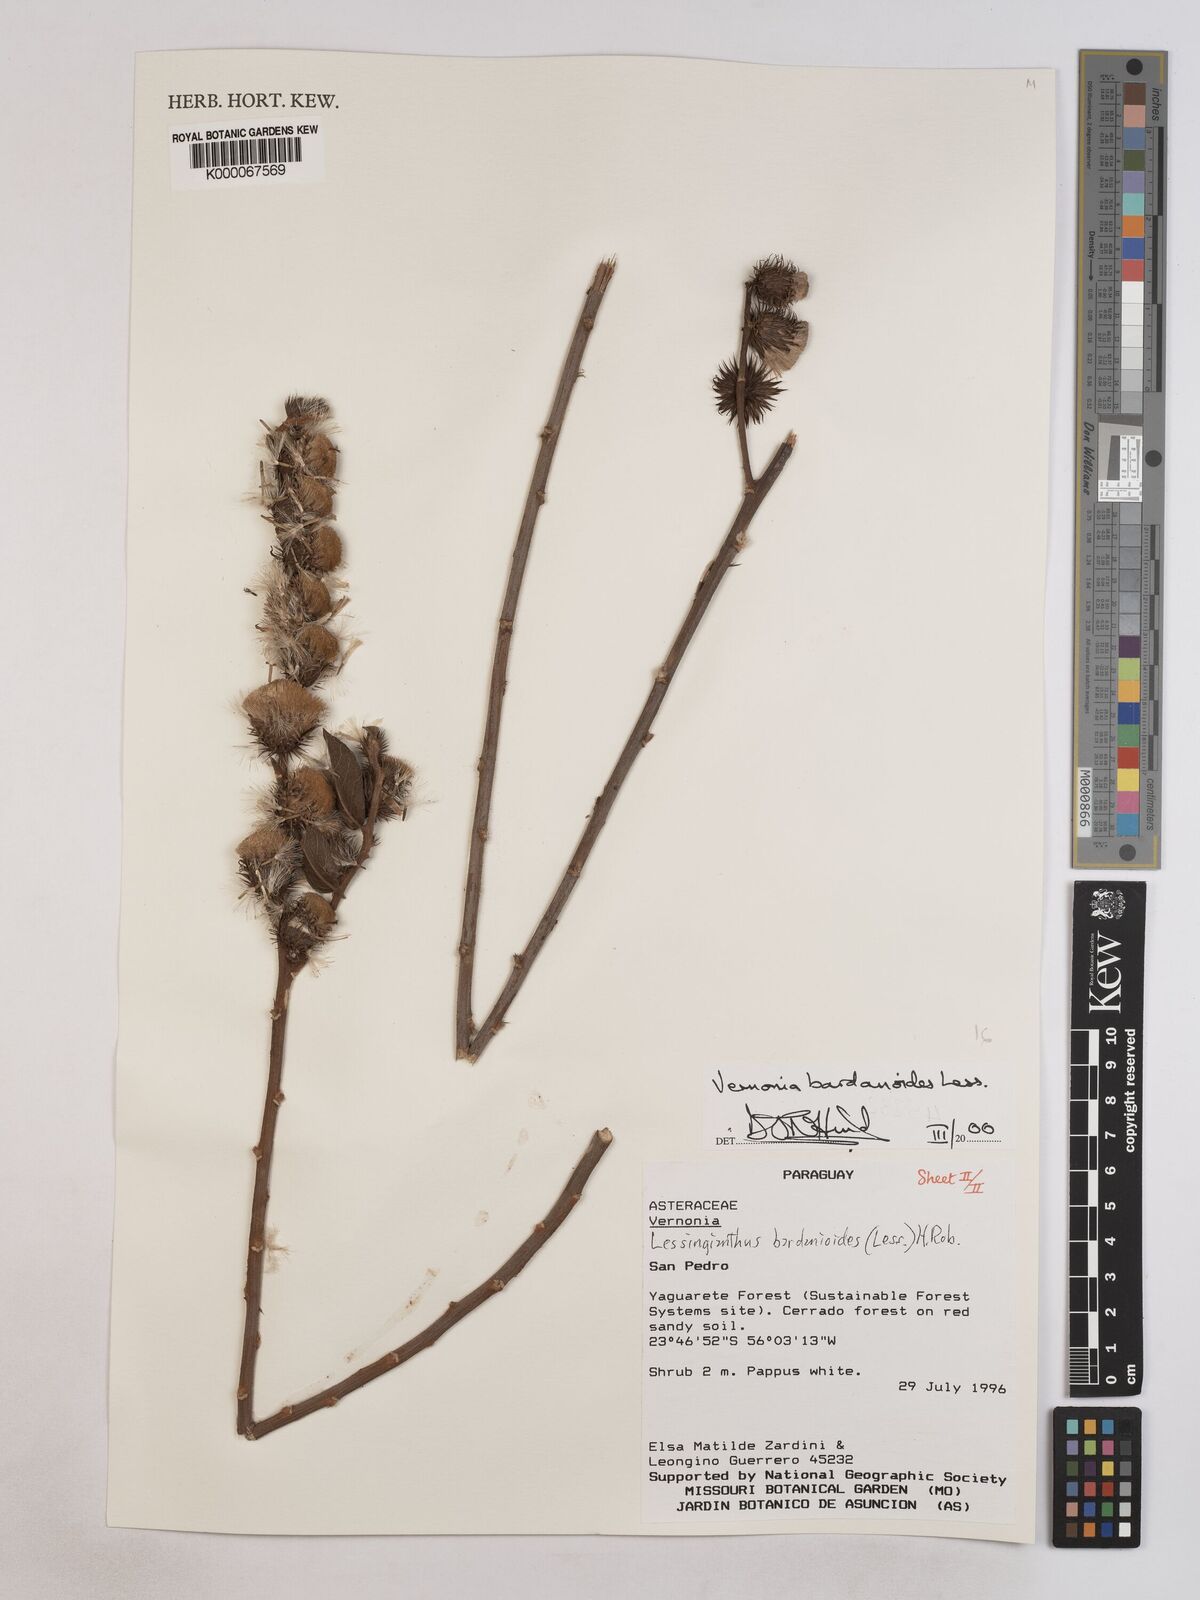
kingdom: Plantae
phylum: Tracheophyta
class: Magnoliopsida
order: Asterales
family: Asteraceae
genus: Lessingianthus
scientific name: Lessingianthus bardanioides
